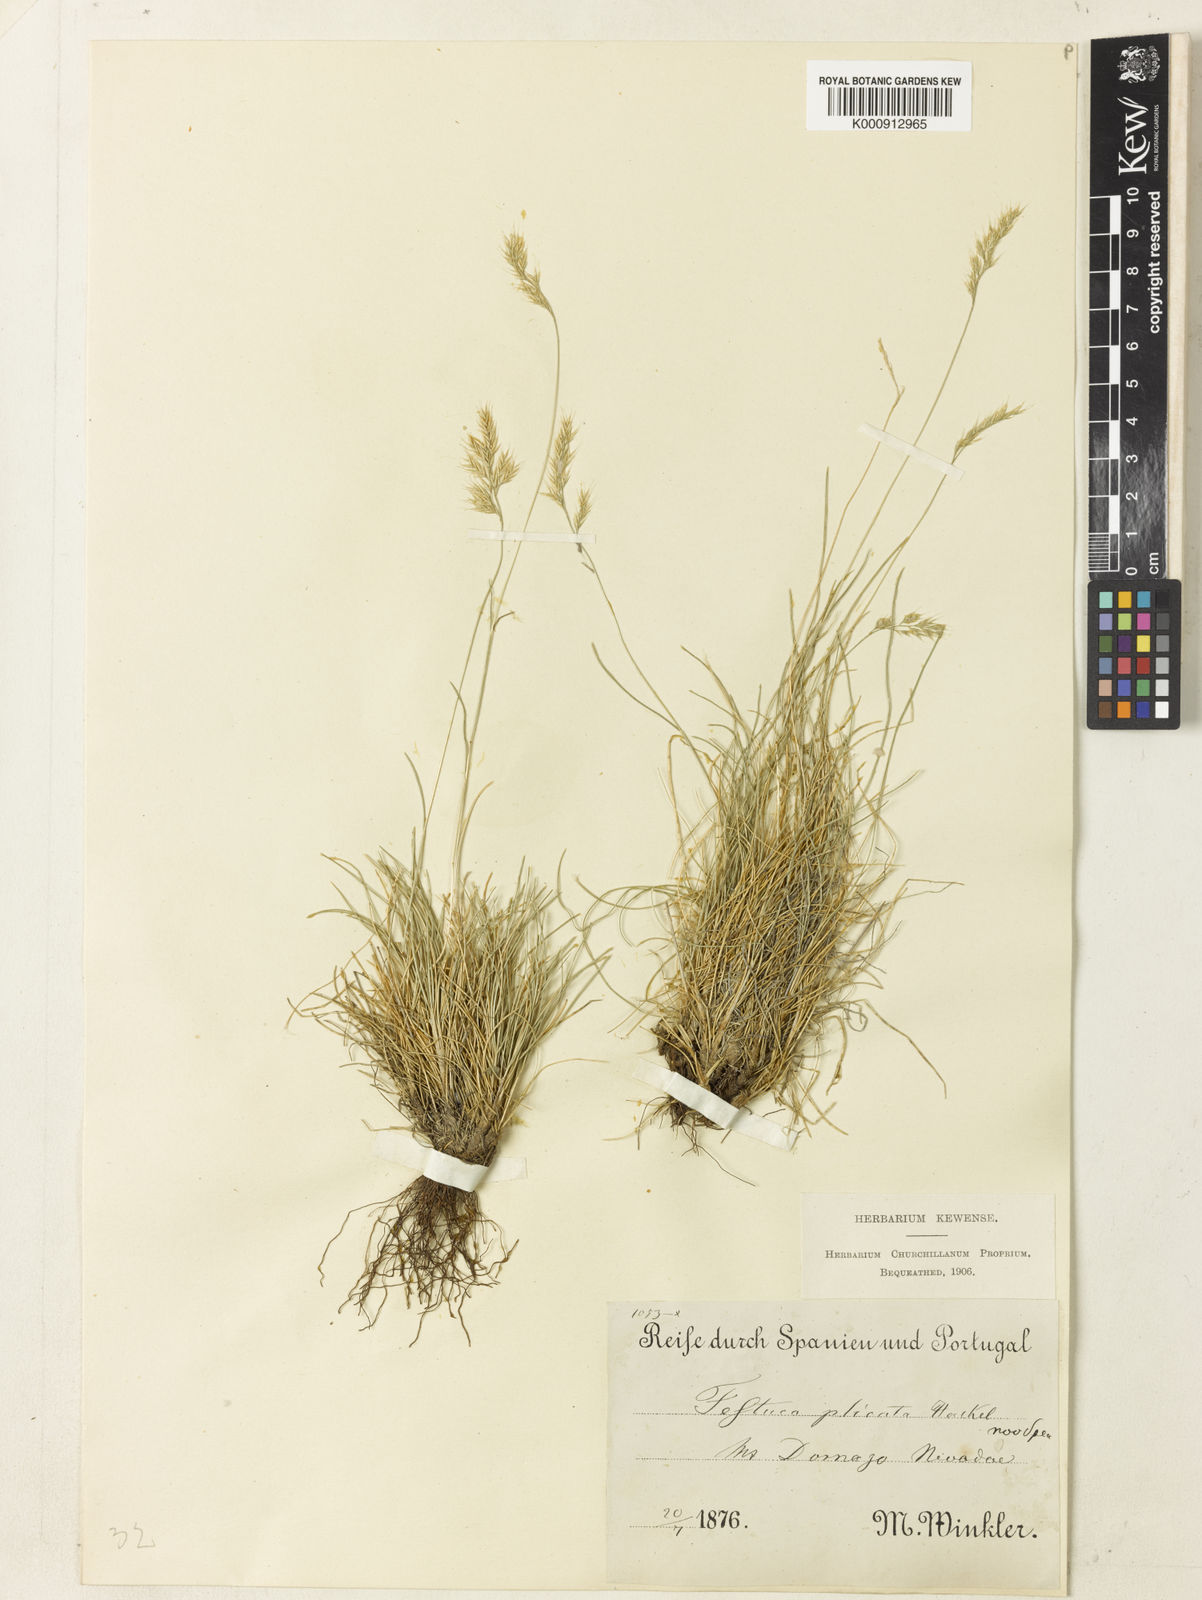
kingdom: Plantae
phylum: Tracheophyta
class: Liliopsida
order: Poales
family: Poaceae
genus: Festuca
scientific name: Festuca plicata
